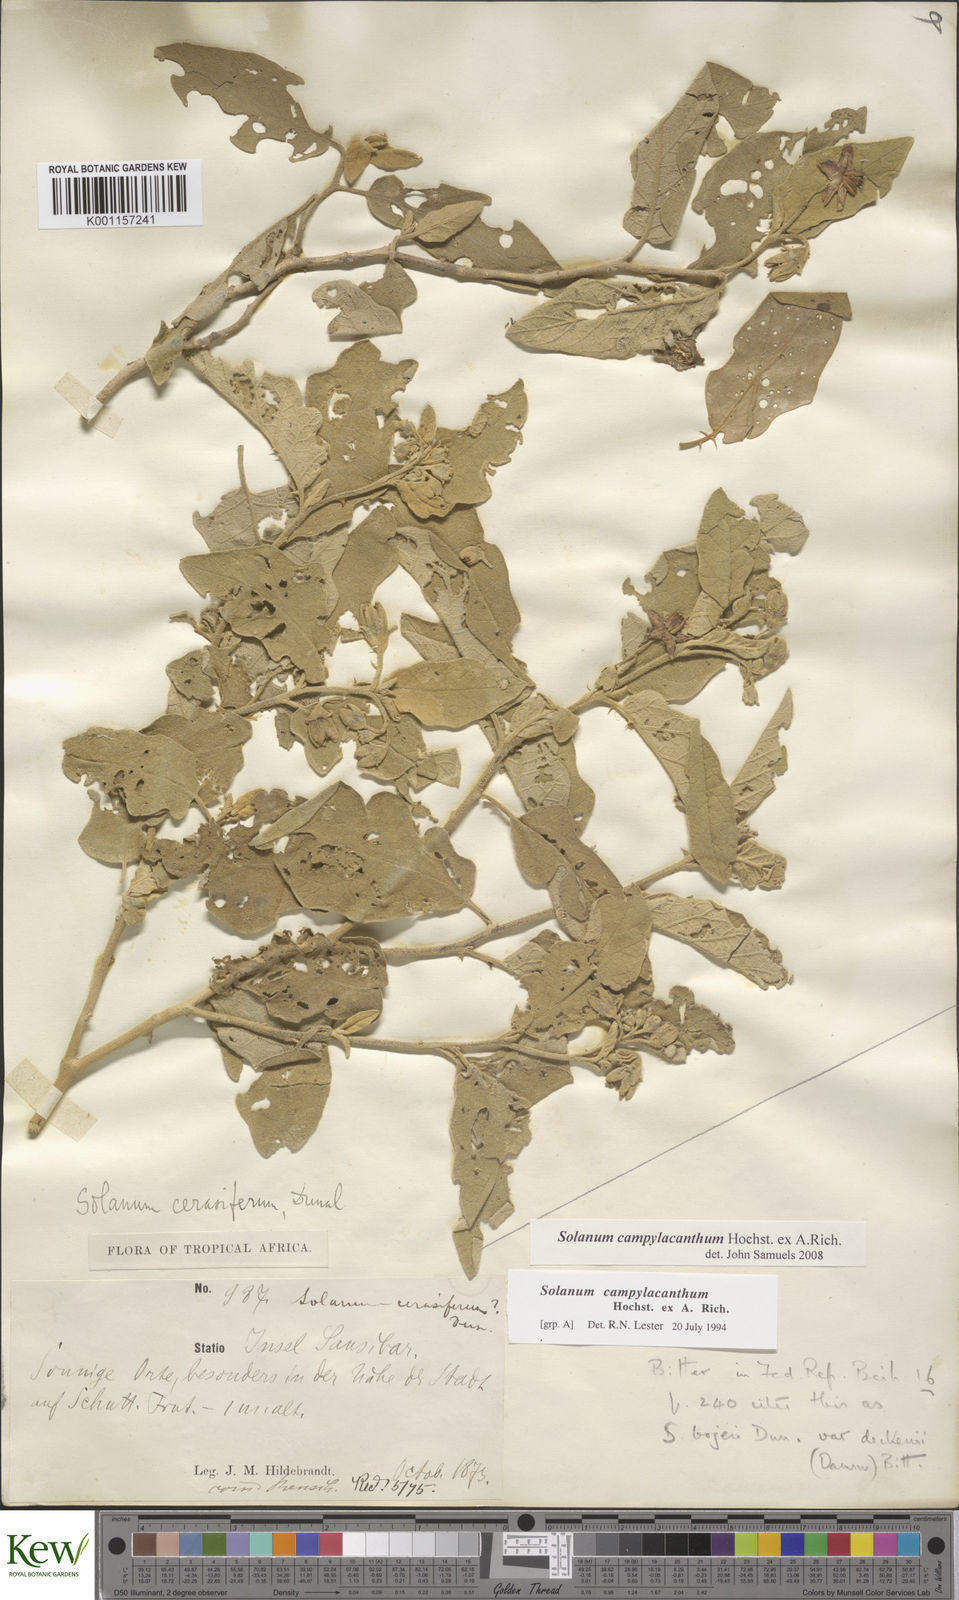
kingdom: Plantae
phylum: Tracheophyta
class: Magnoliopsida
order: Solanales
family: Solanaceae
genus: Solanum
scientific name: Solanum campylacanthum
